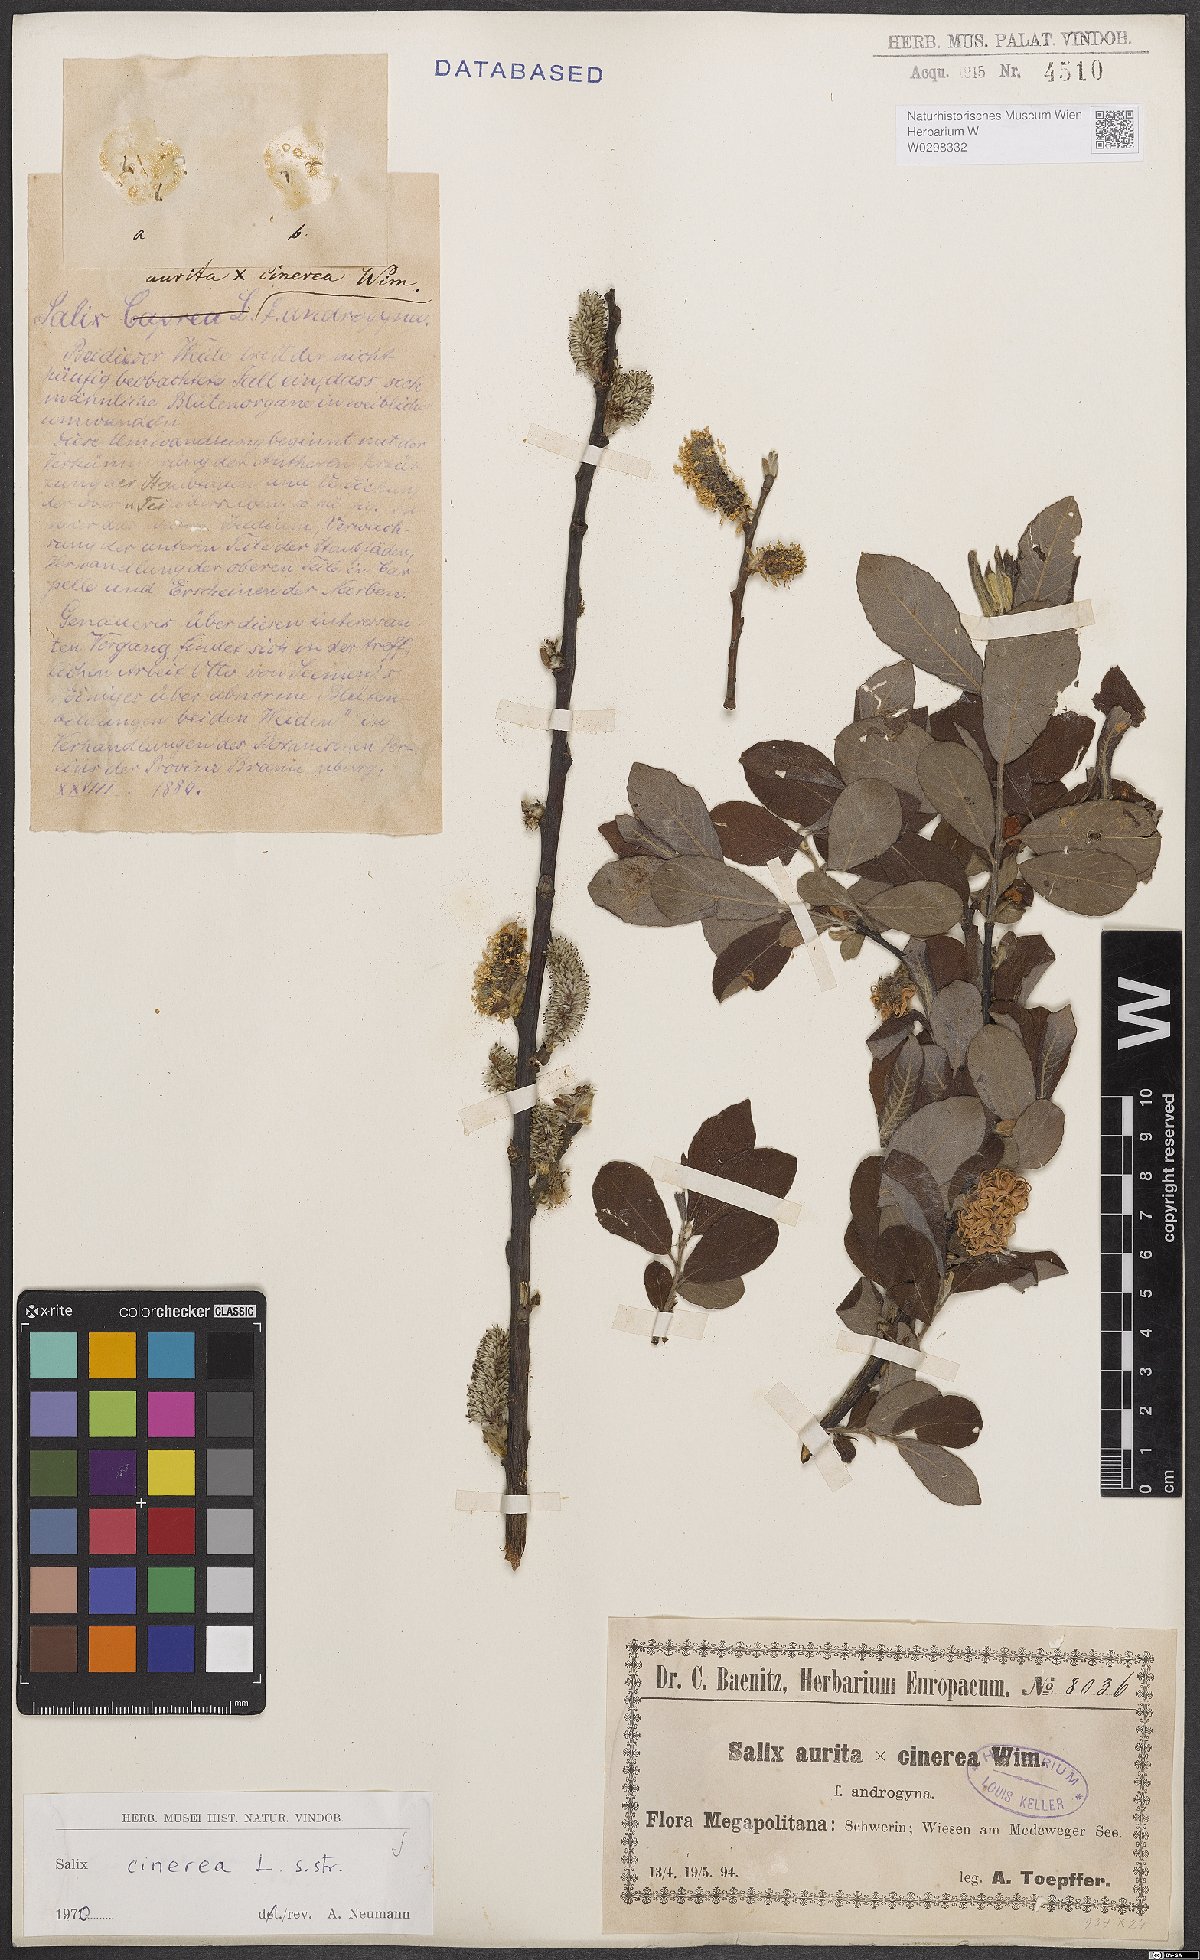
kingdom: Plantae
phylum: Tracheophyta
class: Magnoliopsida
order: Malpighiales
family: Salicaceae
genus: Salix
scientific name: Salix cinerea
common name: Common sallow
